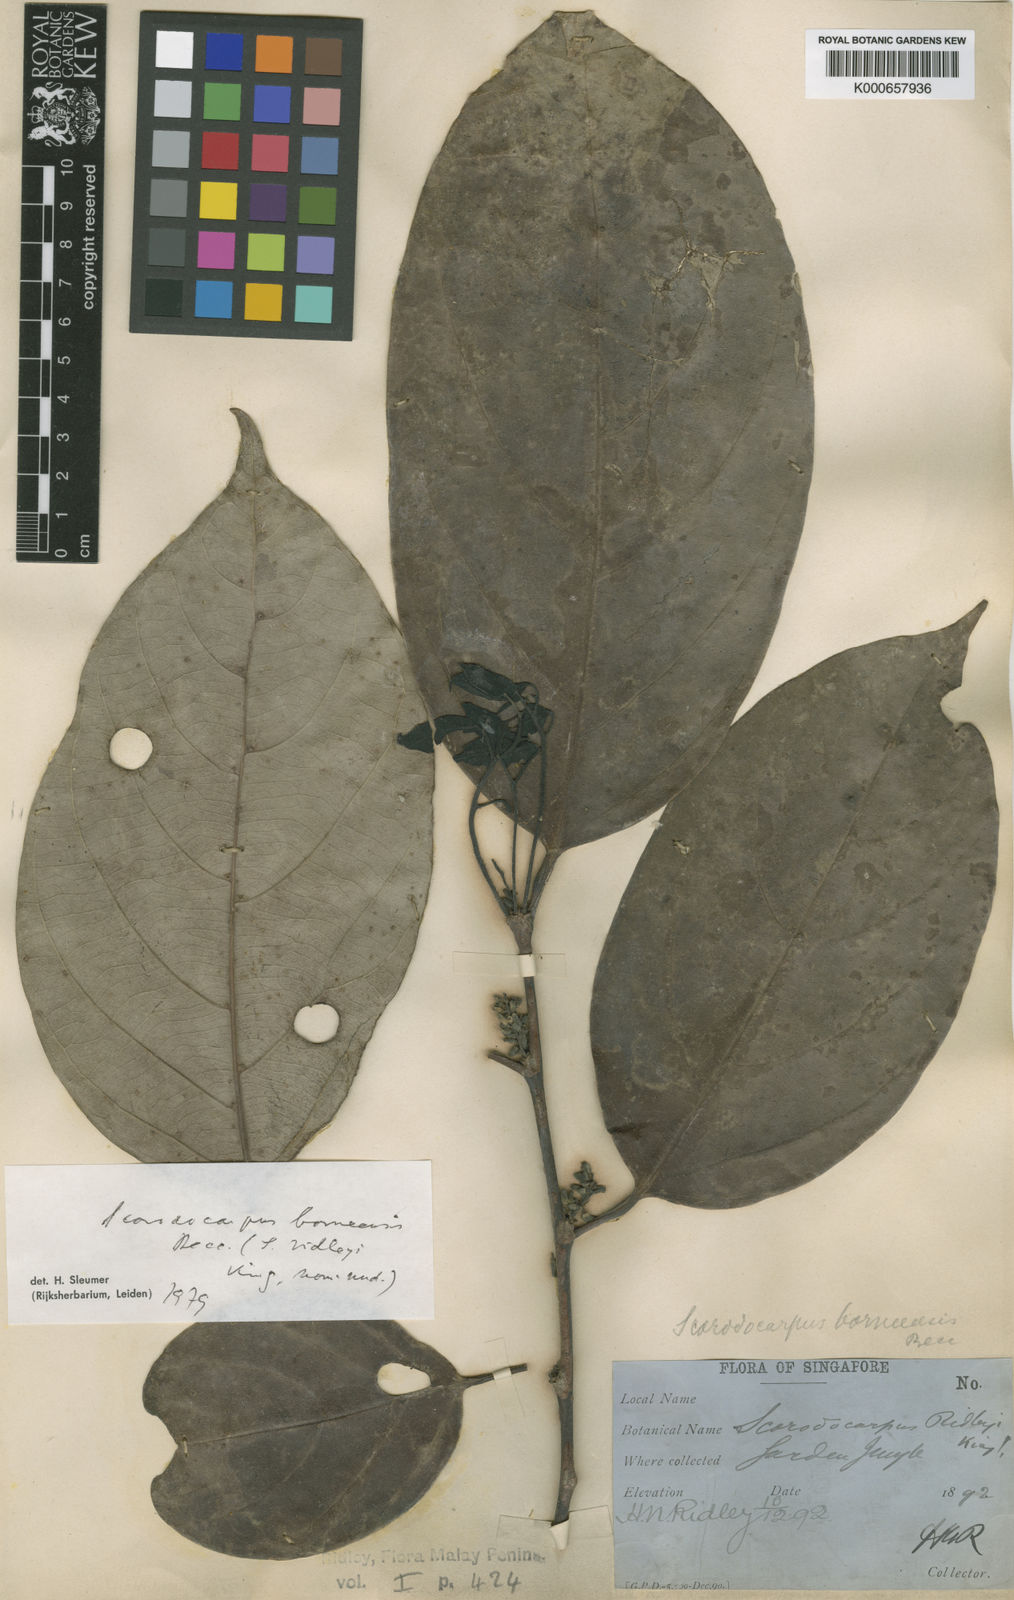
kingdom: Plantae
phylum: Tracheophyta
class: Magnoliopsida
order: Santalales
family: Strombosiaceae
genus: Scorodocarpus
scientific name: Scorodocarpus borneensis
